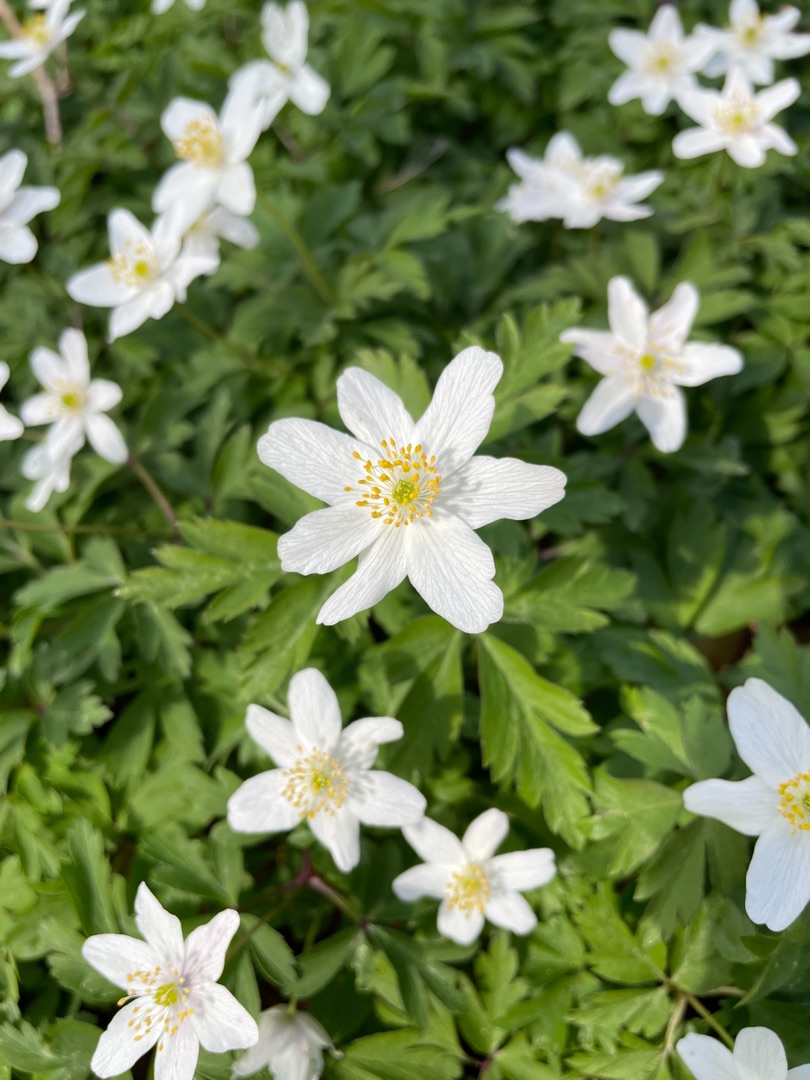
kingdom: Plantae
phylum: Tracheophyta
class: Magnoliopsida
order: Ranunculales
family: Ranunculaceae
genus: Anemone
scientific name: Anemone nemorosa
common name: Hvid anemone
